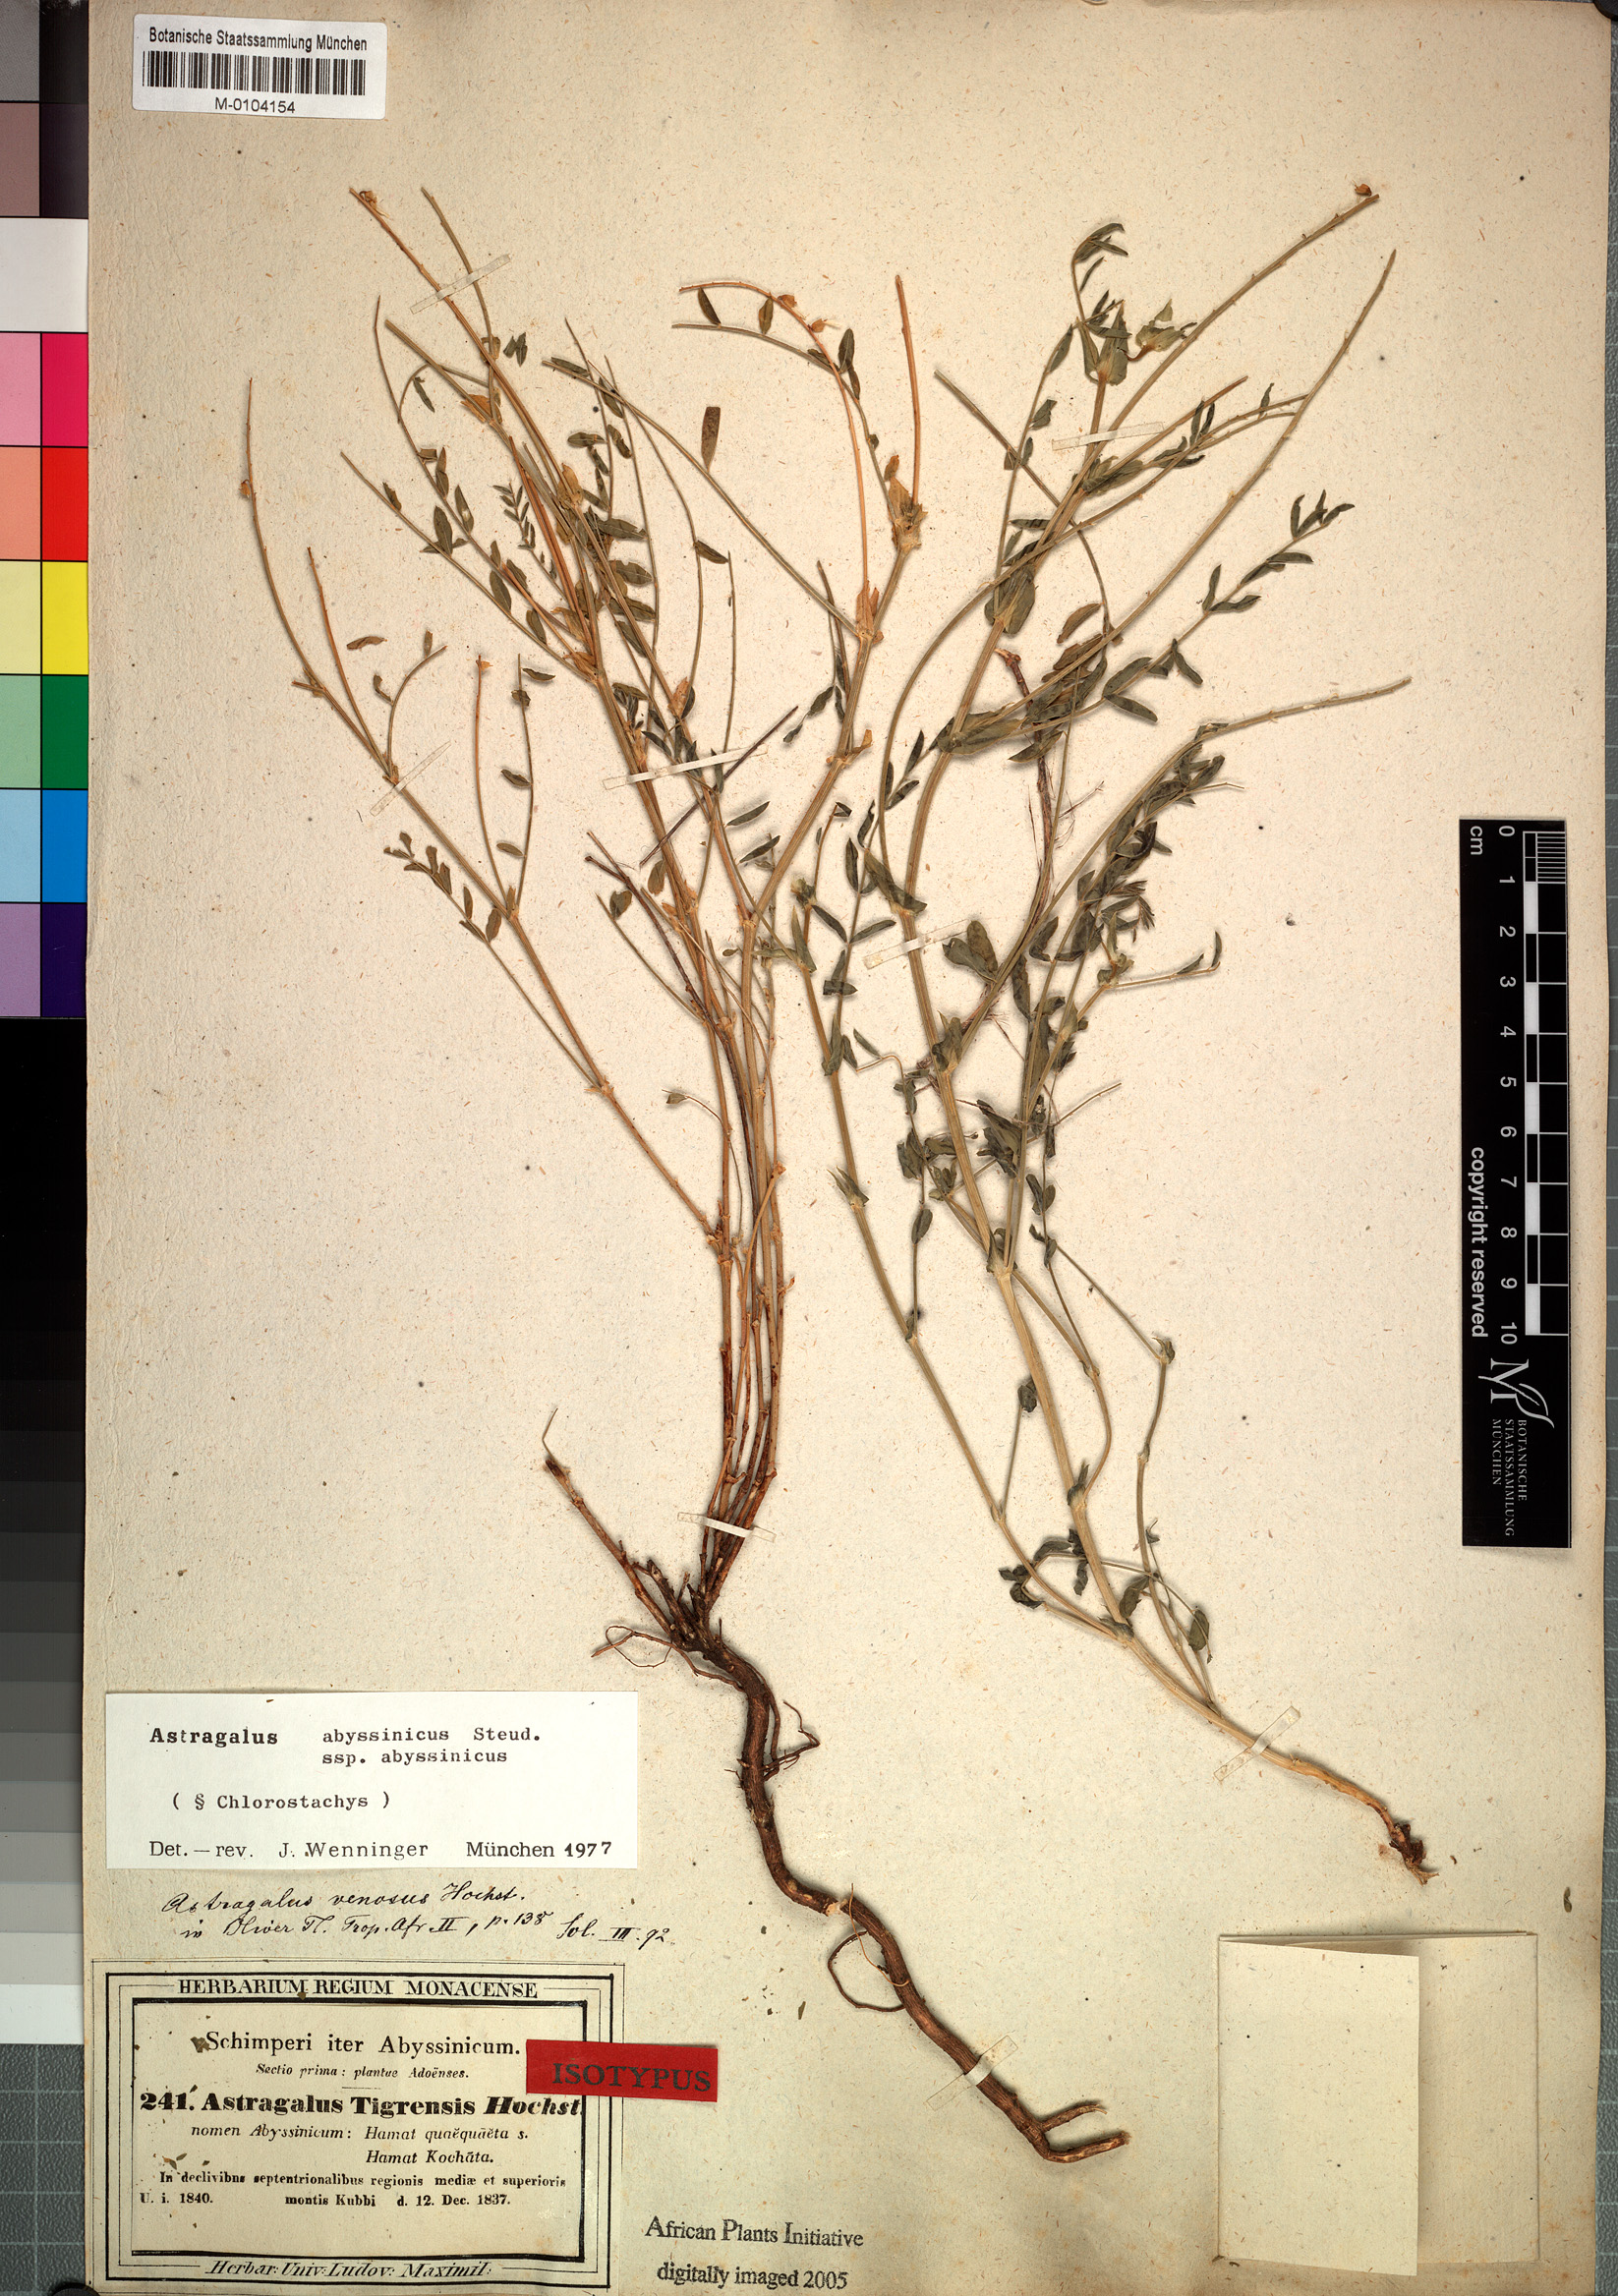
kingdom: Plantae
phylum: Tracheophyta
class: Magnoliopsida
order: Fabales
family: Fabaceae
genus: Astragalus
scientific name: Astragalus atropilosulus
